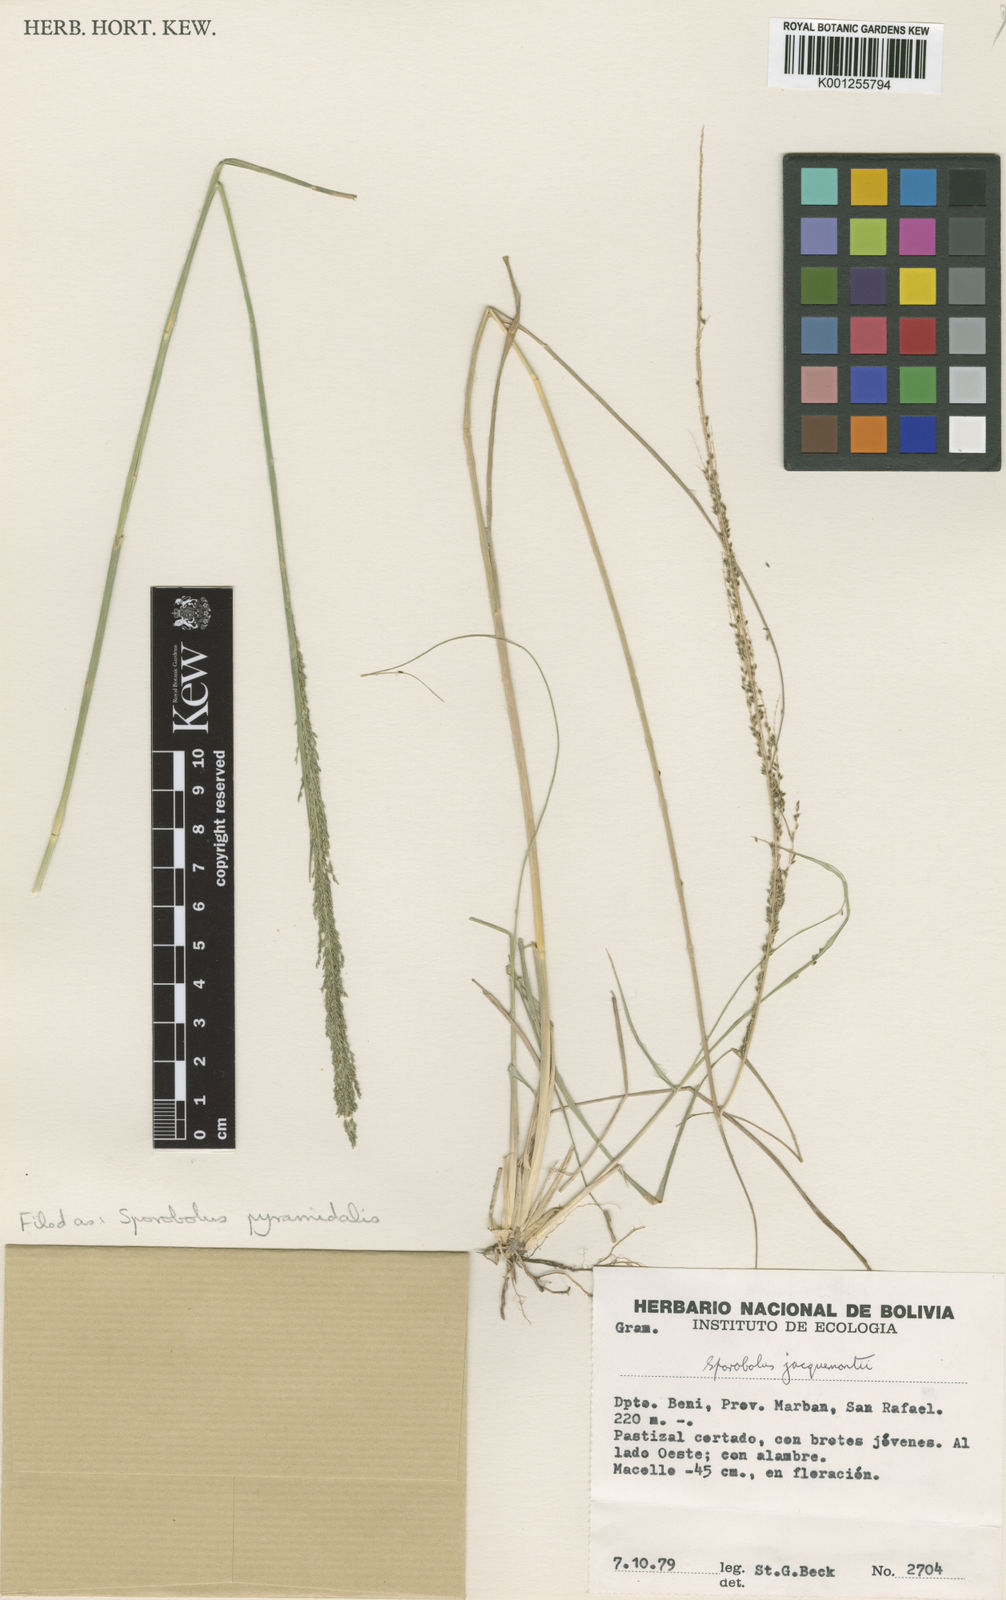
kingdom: Plantae
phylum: Tracheophyta
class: Liliopsida
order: Poales
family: Poaceae
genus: Sporobolus
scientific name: Sporobolus pyramidalis
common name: West indian dropseed
